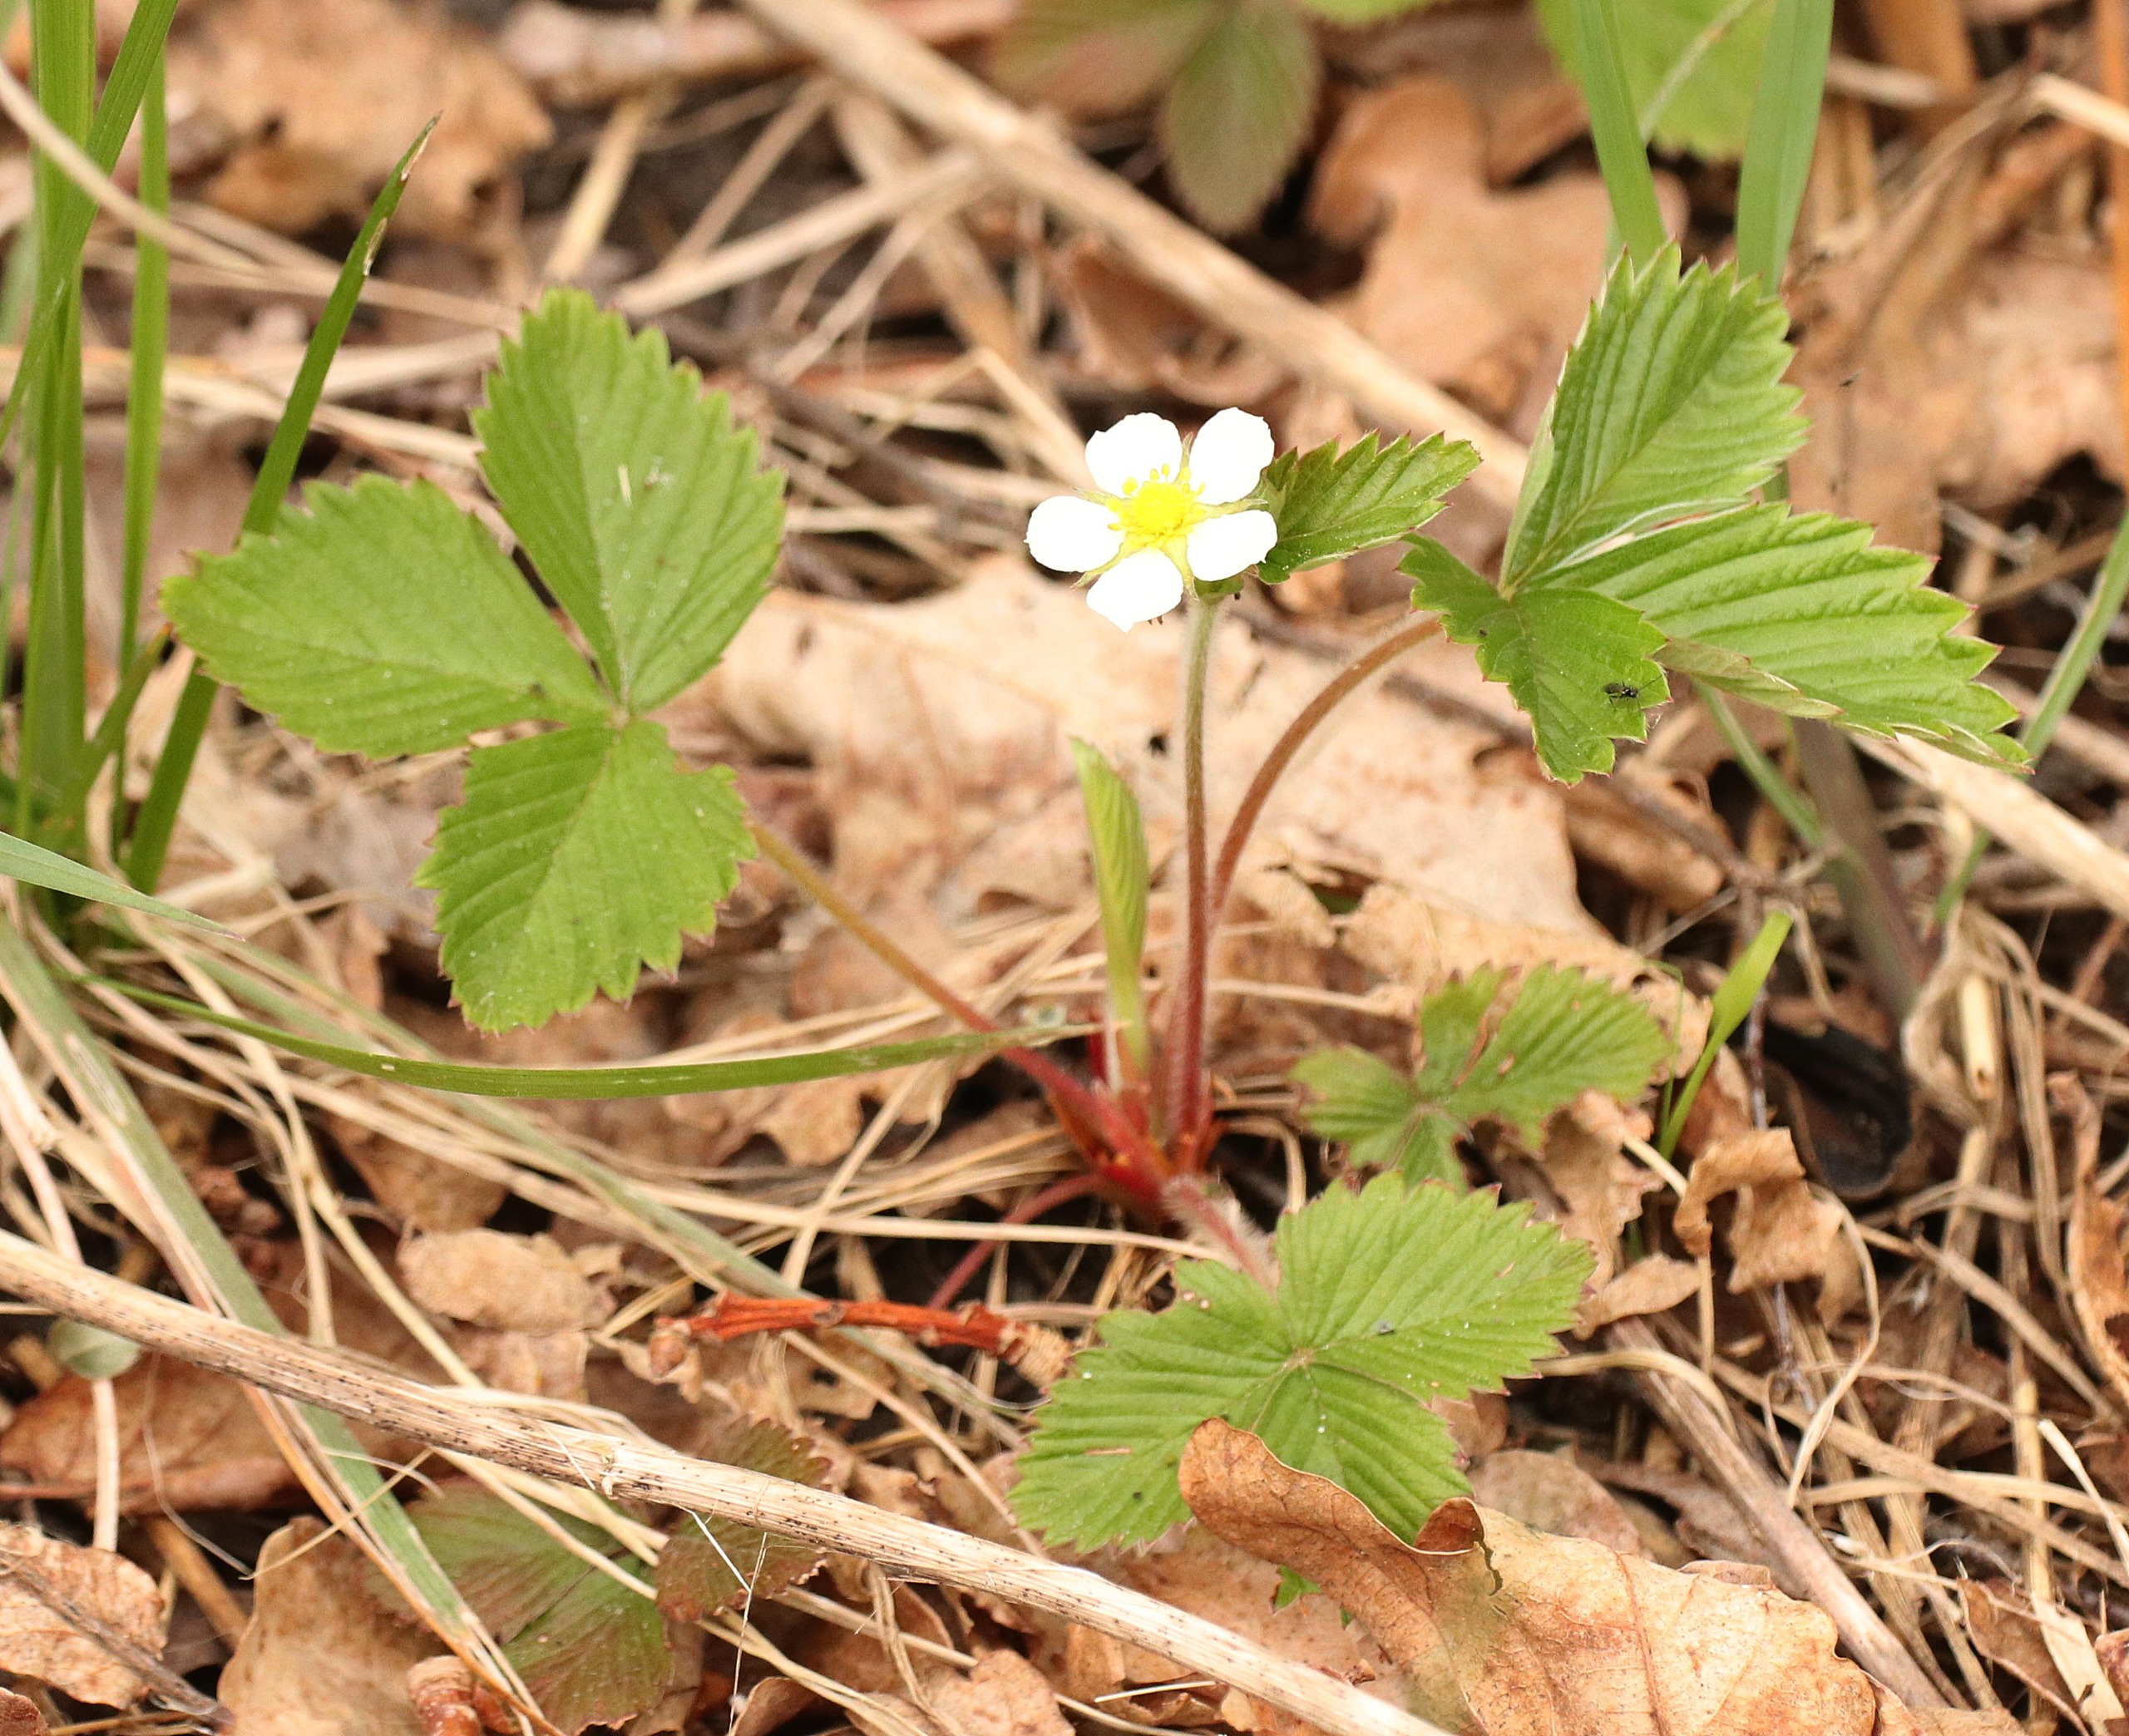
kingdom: Plantae
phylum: Tracheophyta
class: Magnoliopsida
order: Rosales
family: Rosaceae
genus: Fragaria
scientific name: Fragaria vesca
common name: Skov-jordbær
